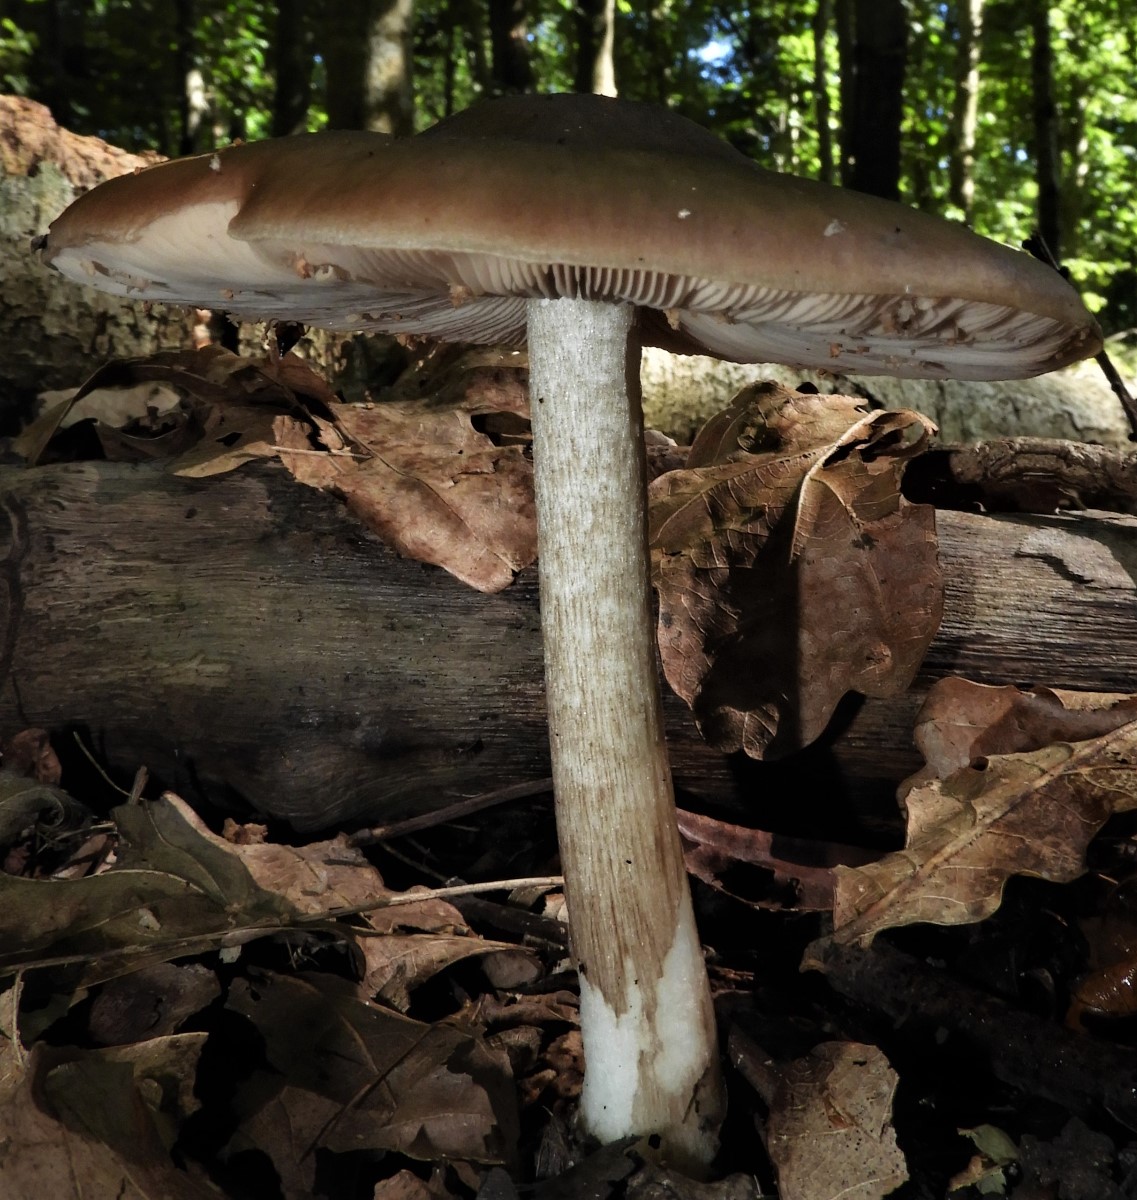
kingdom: Fungi
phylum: Basidiomycota
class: Agaricomycetes
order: Agaricales
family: Pluteaceae
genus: Pluteus
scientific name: Pluteus cervinus
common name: sodfarvet skærmhat
